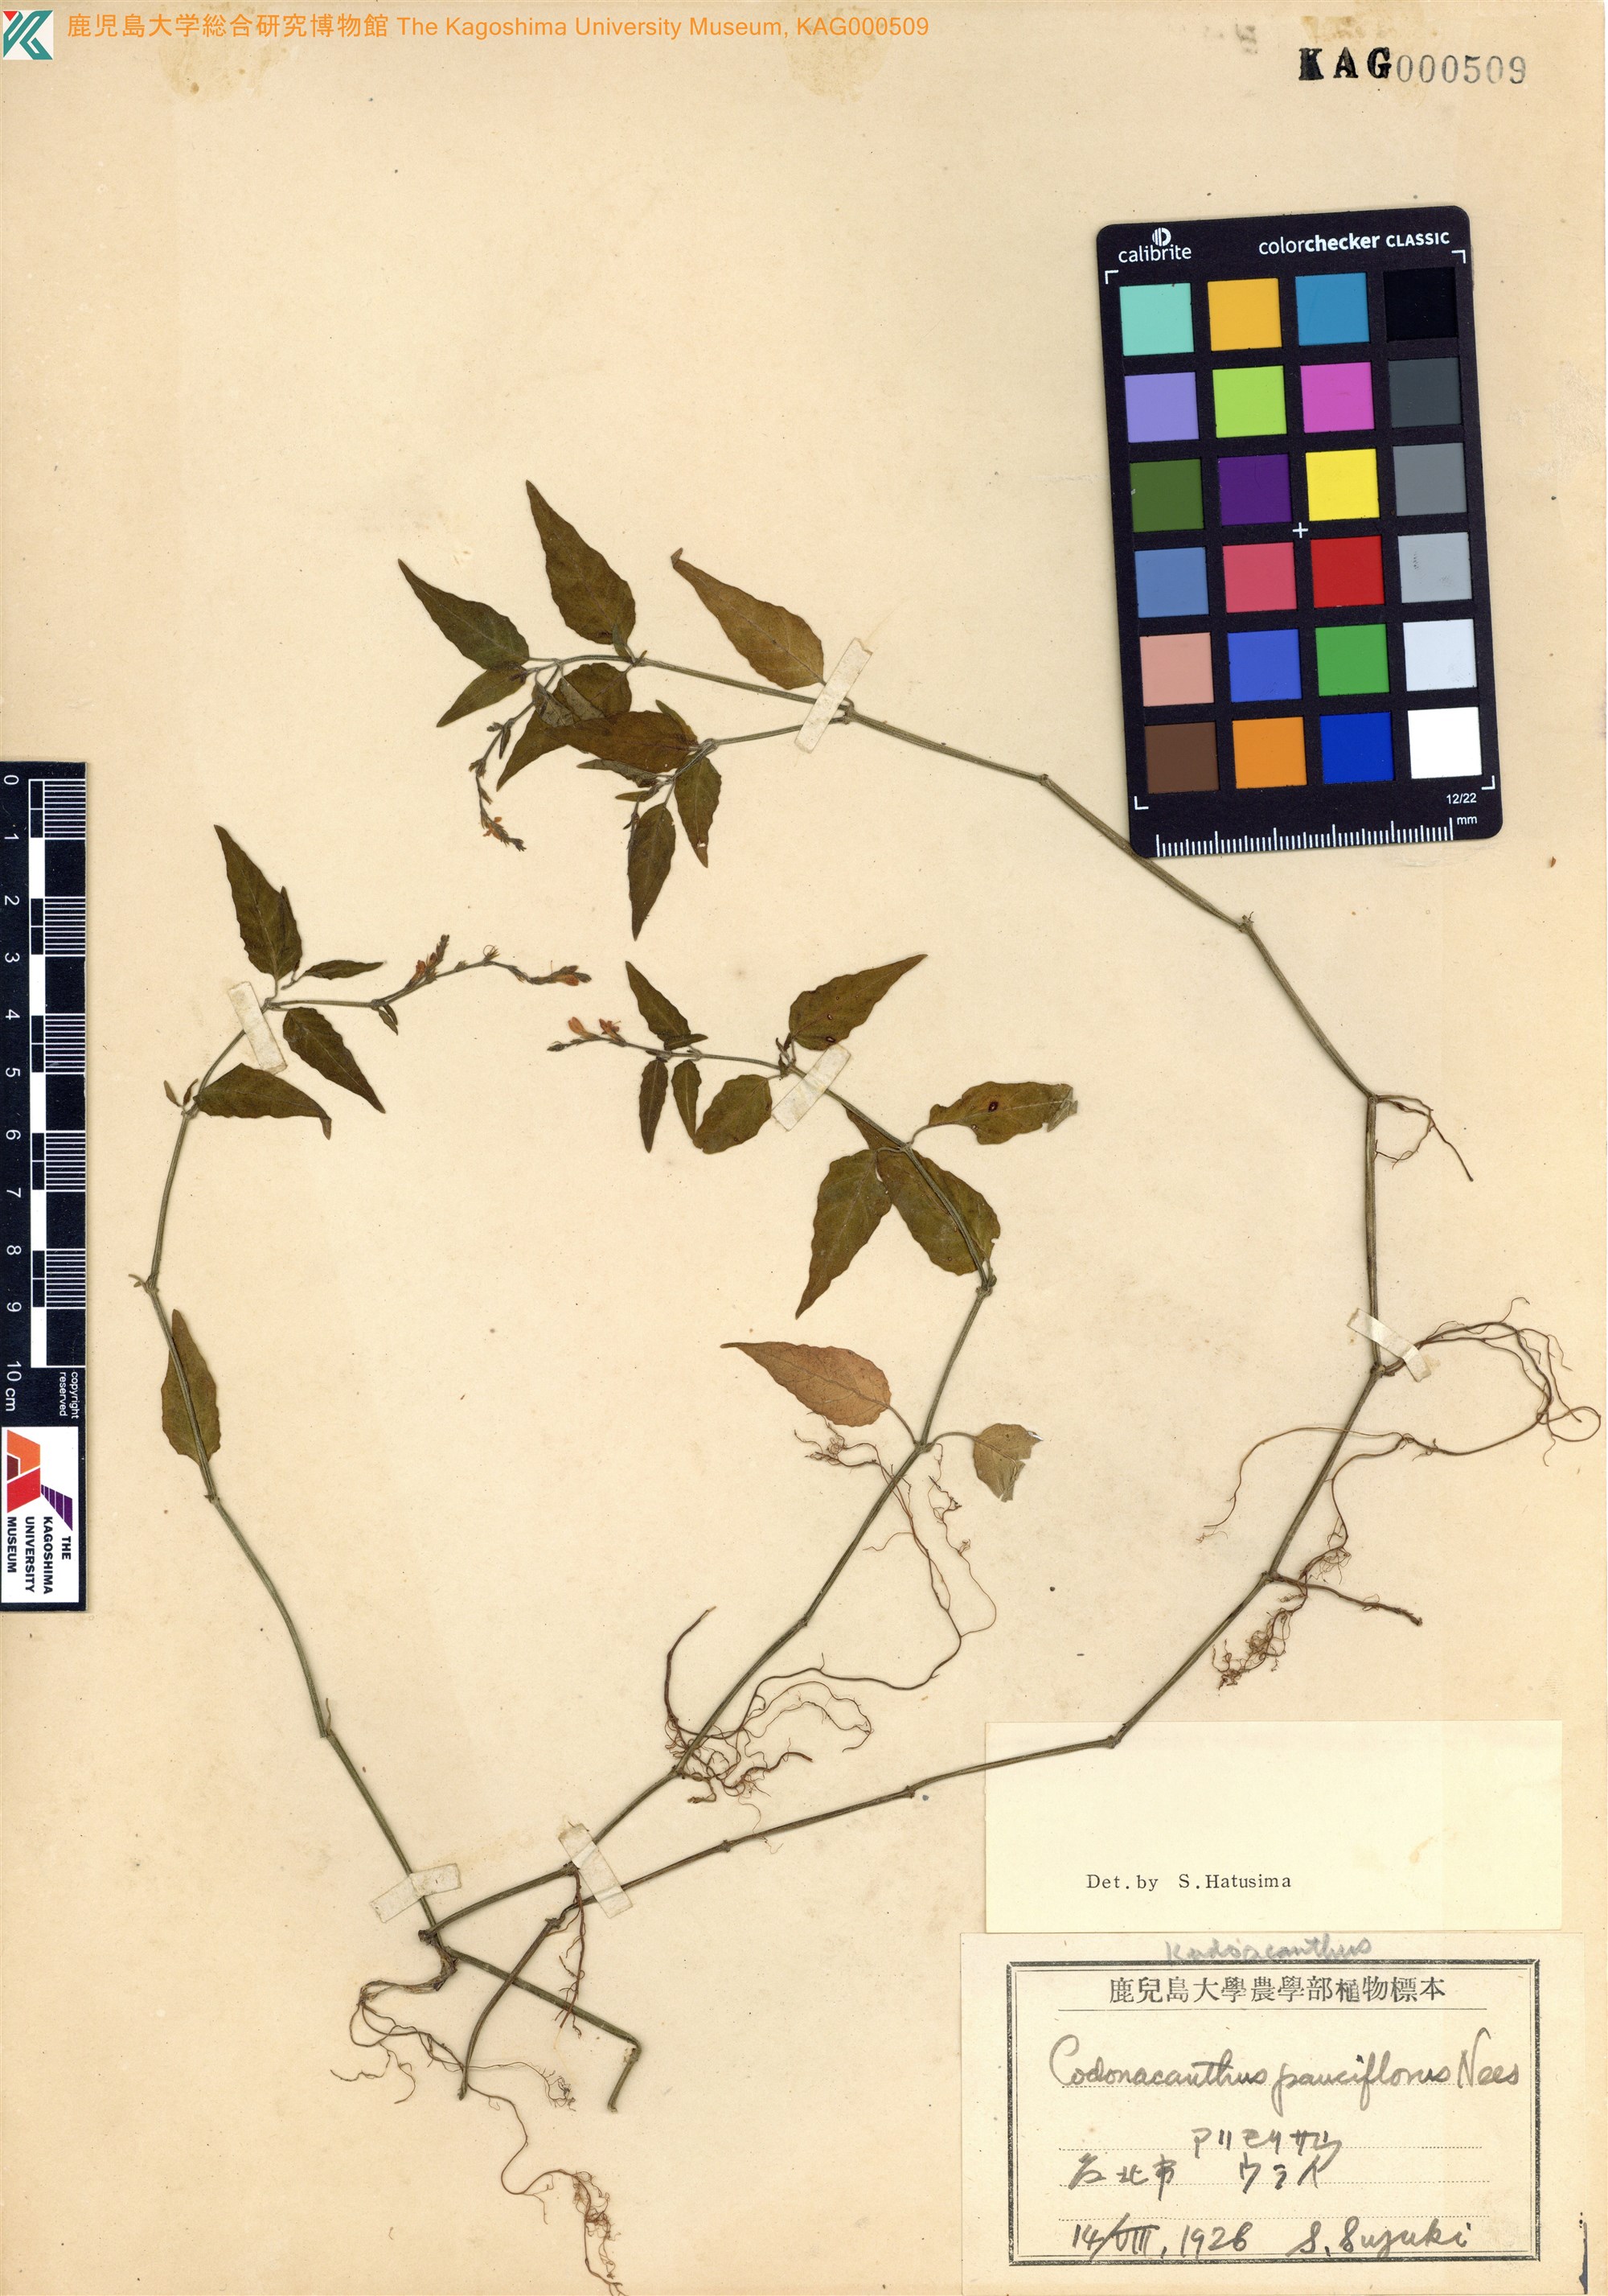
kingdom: Plantae
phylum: Tracheophyta
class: Magnoliopsida
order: Lamiales
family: Acanthaceae
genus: Codonacanthus
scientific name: Codonacanthus pauciflorus
